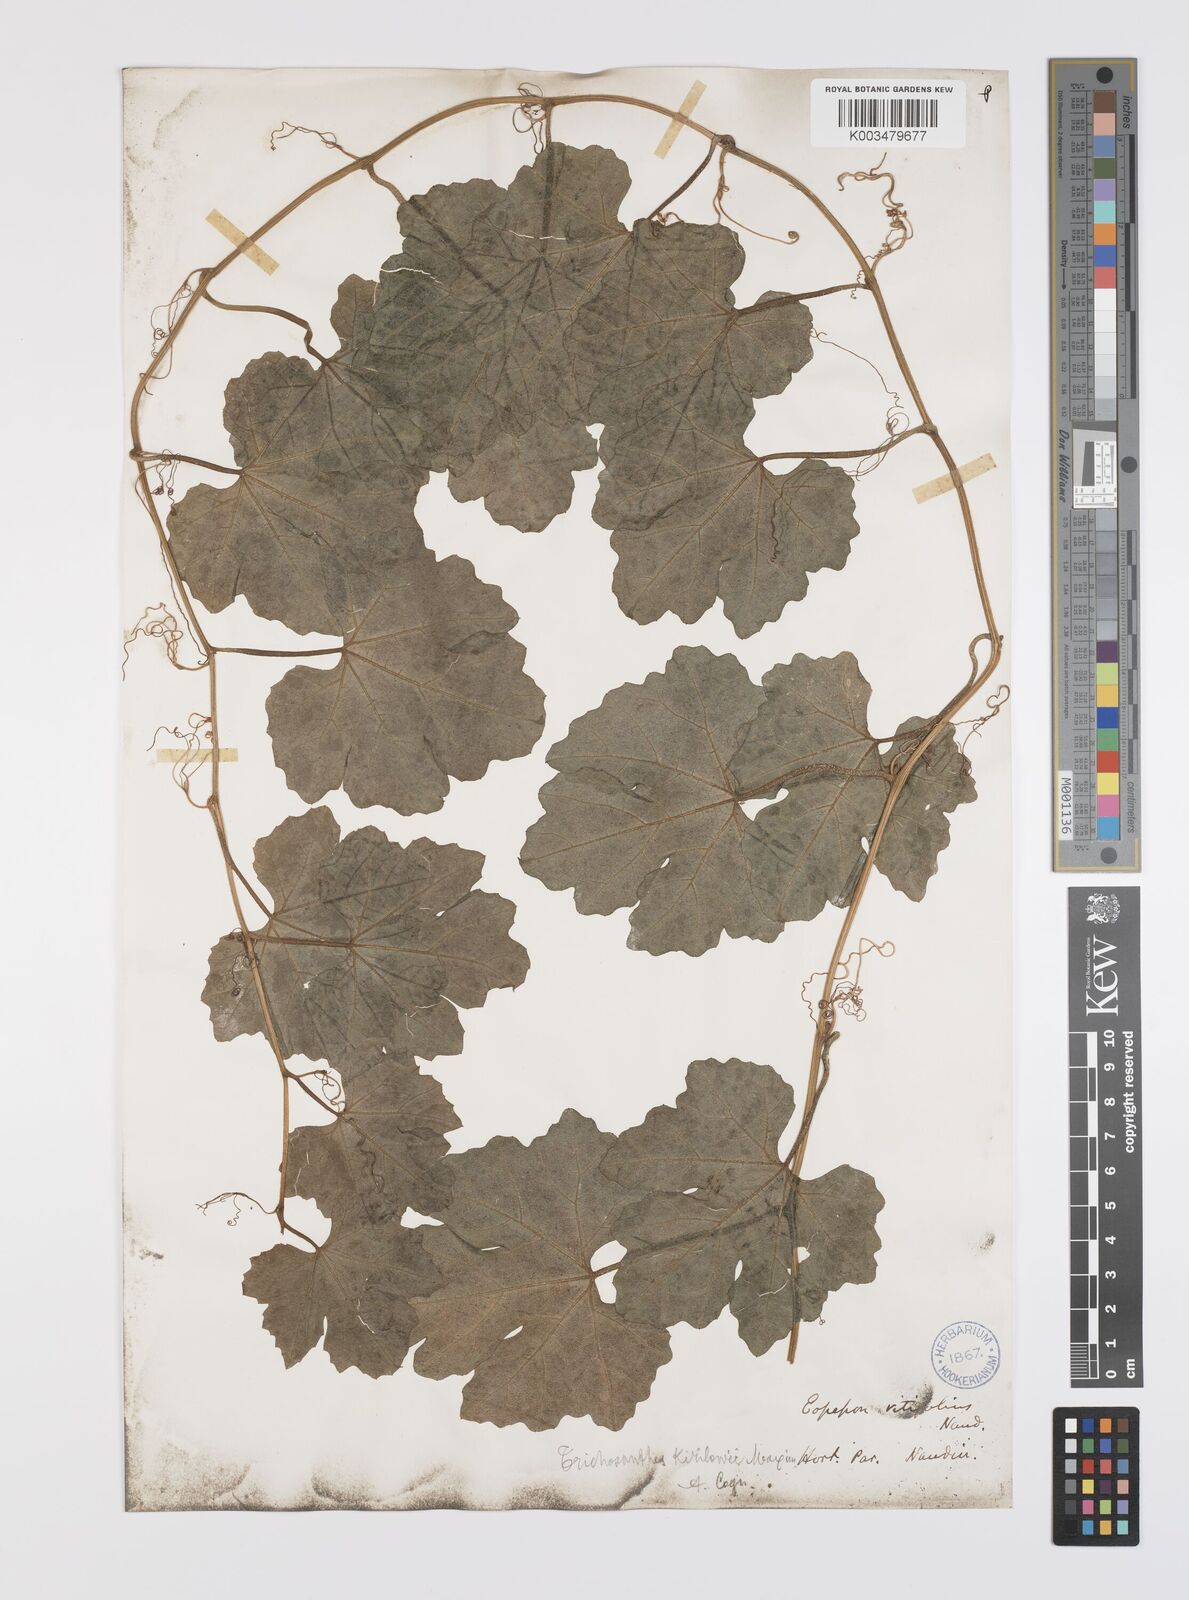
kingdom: Plantae
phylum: Tracheophyta
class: Magnoliopsida
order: Cucurbitales
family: Cucurbitaceae
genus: Trichosanthes
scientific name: Trichosanthes kirilowii
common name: Chinese-cucumber
